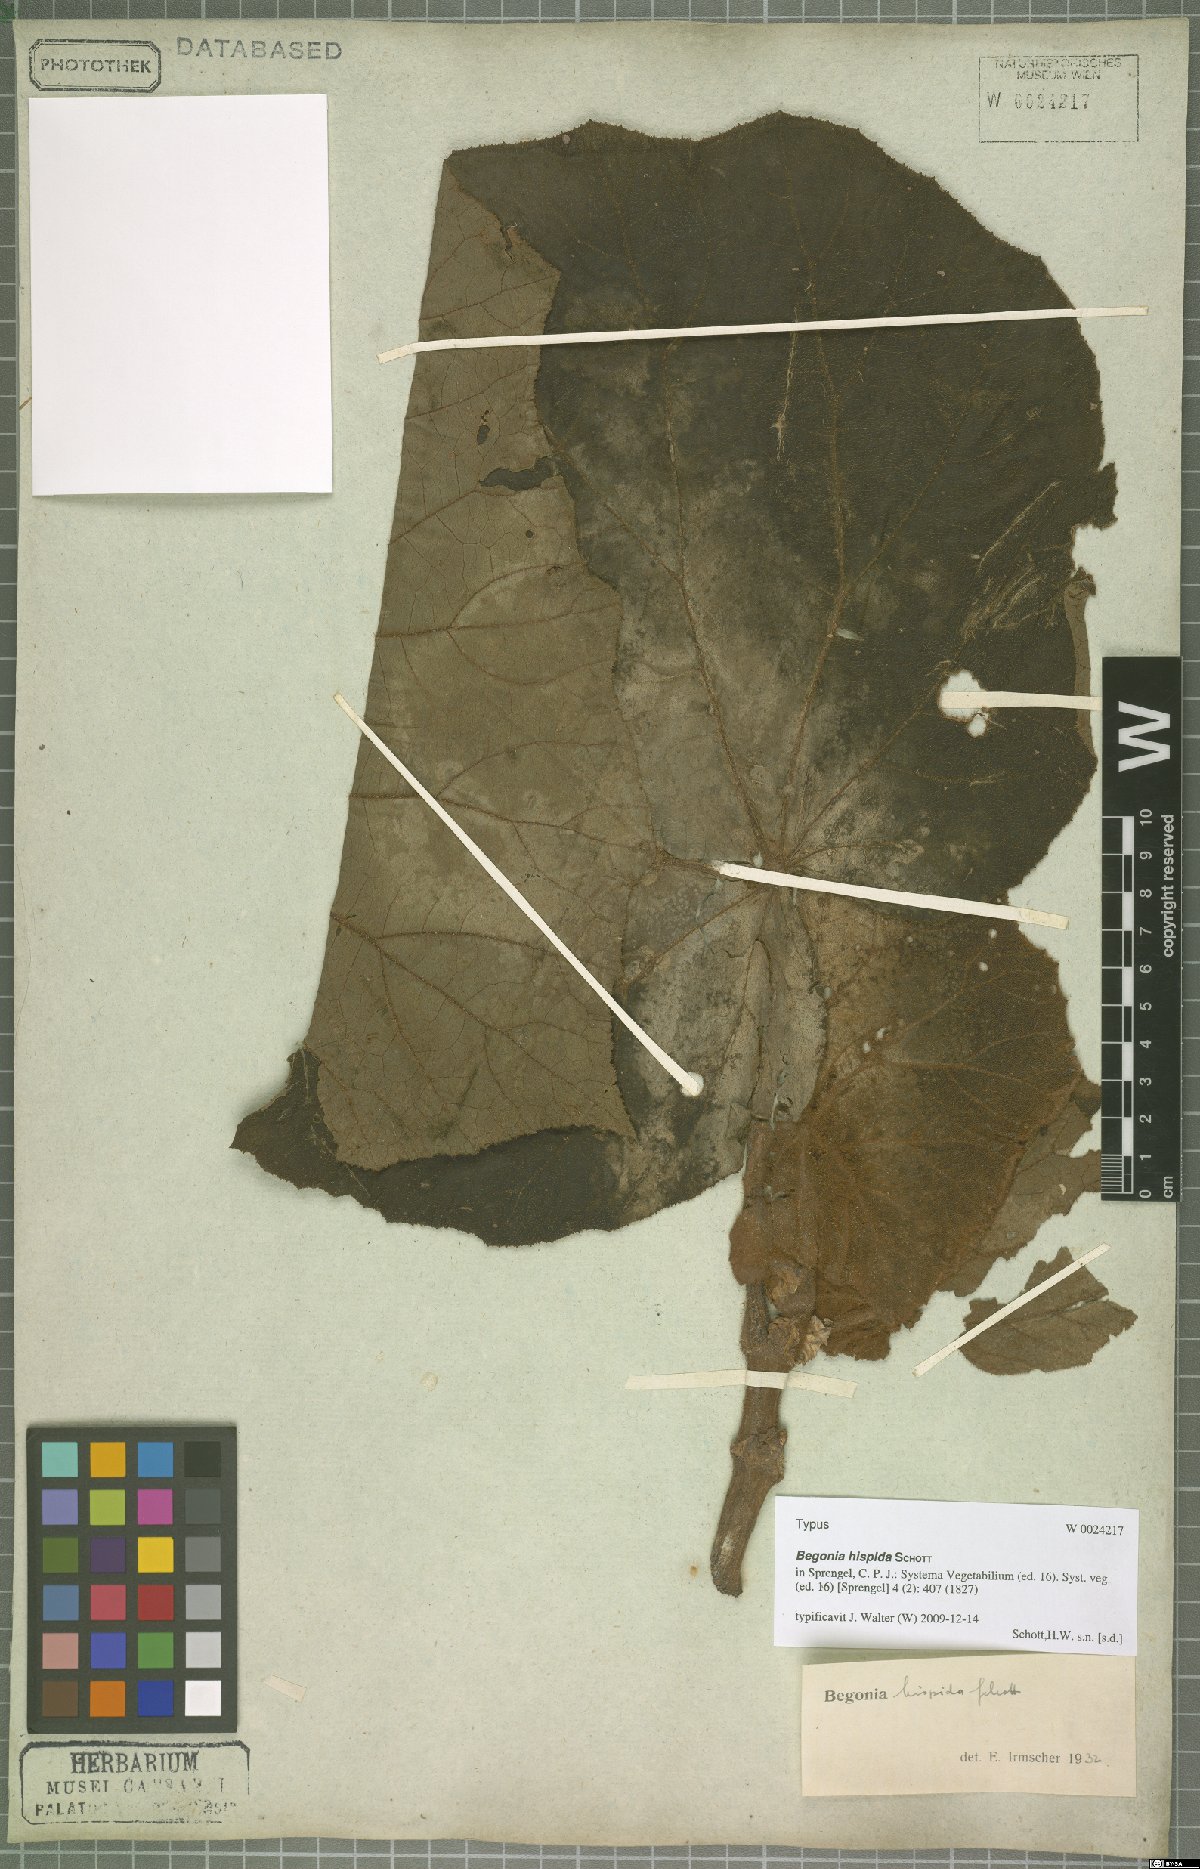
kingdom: Plantae
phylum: Tracheophyta
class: Magnoliopsida
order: Cucurbitales
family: Begoniaceae
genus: Begonia
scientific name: Begonia hispida
